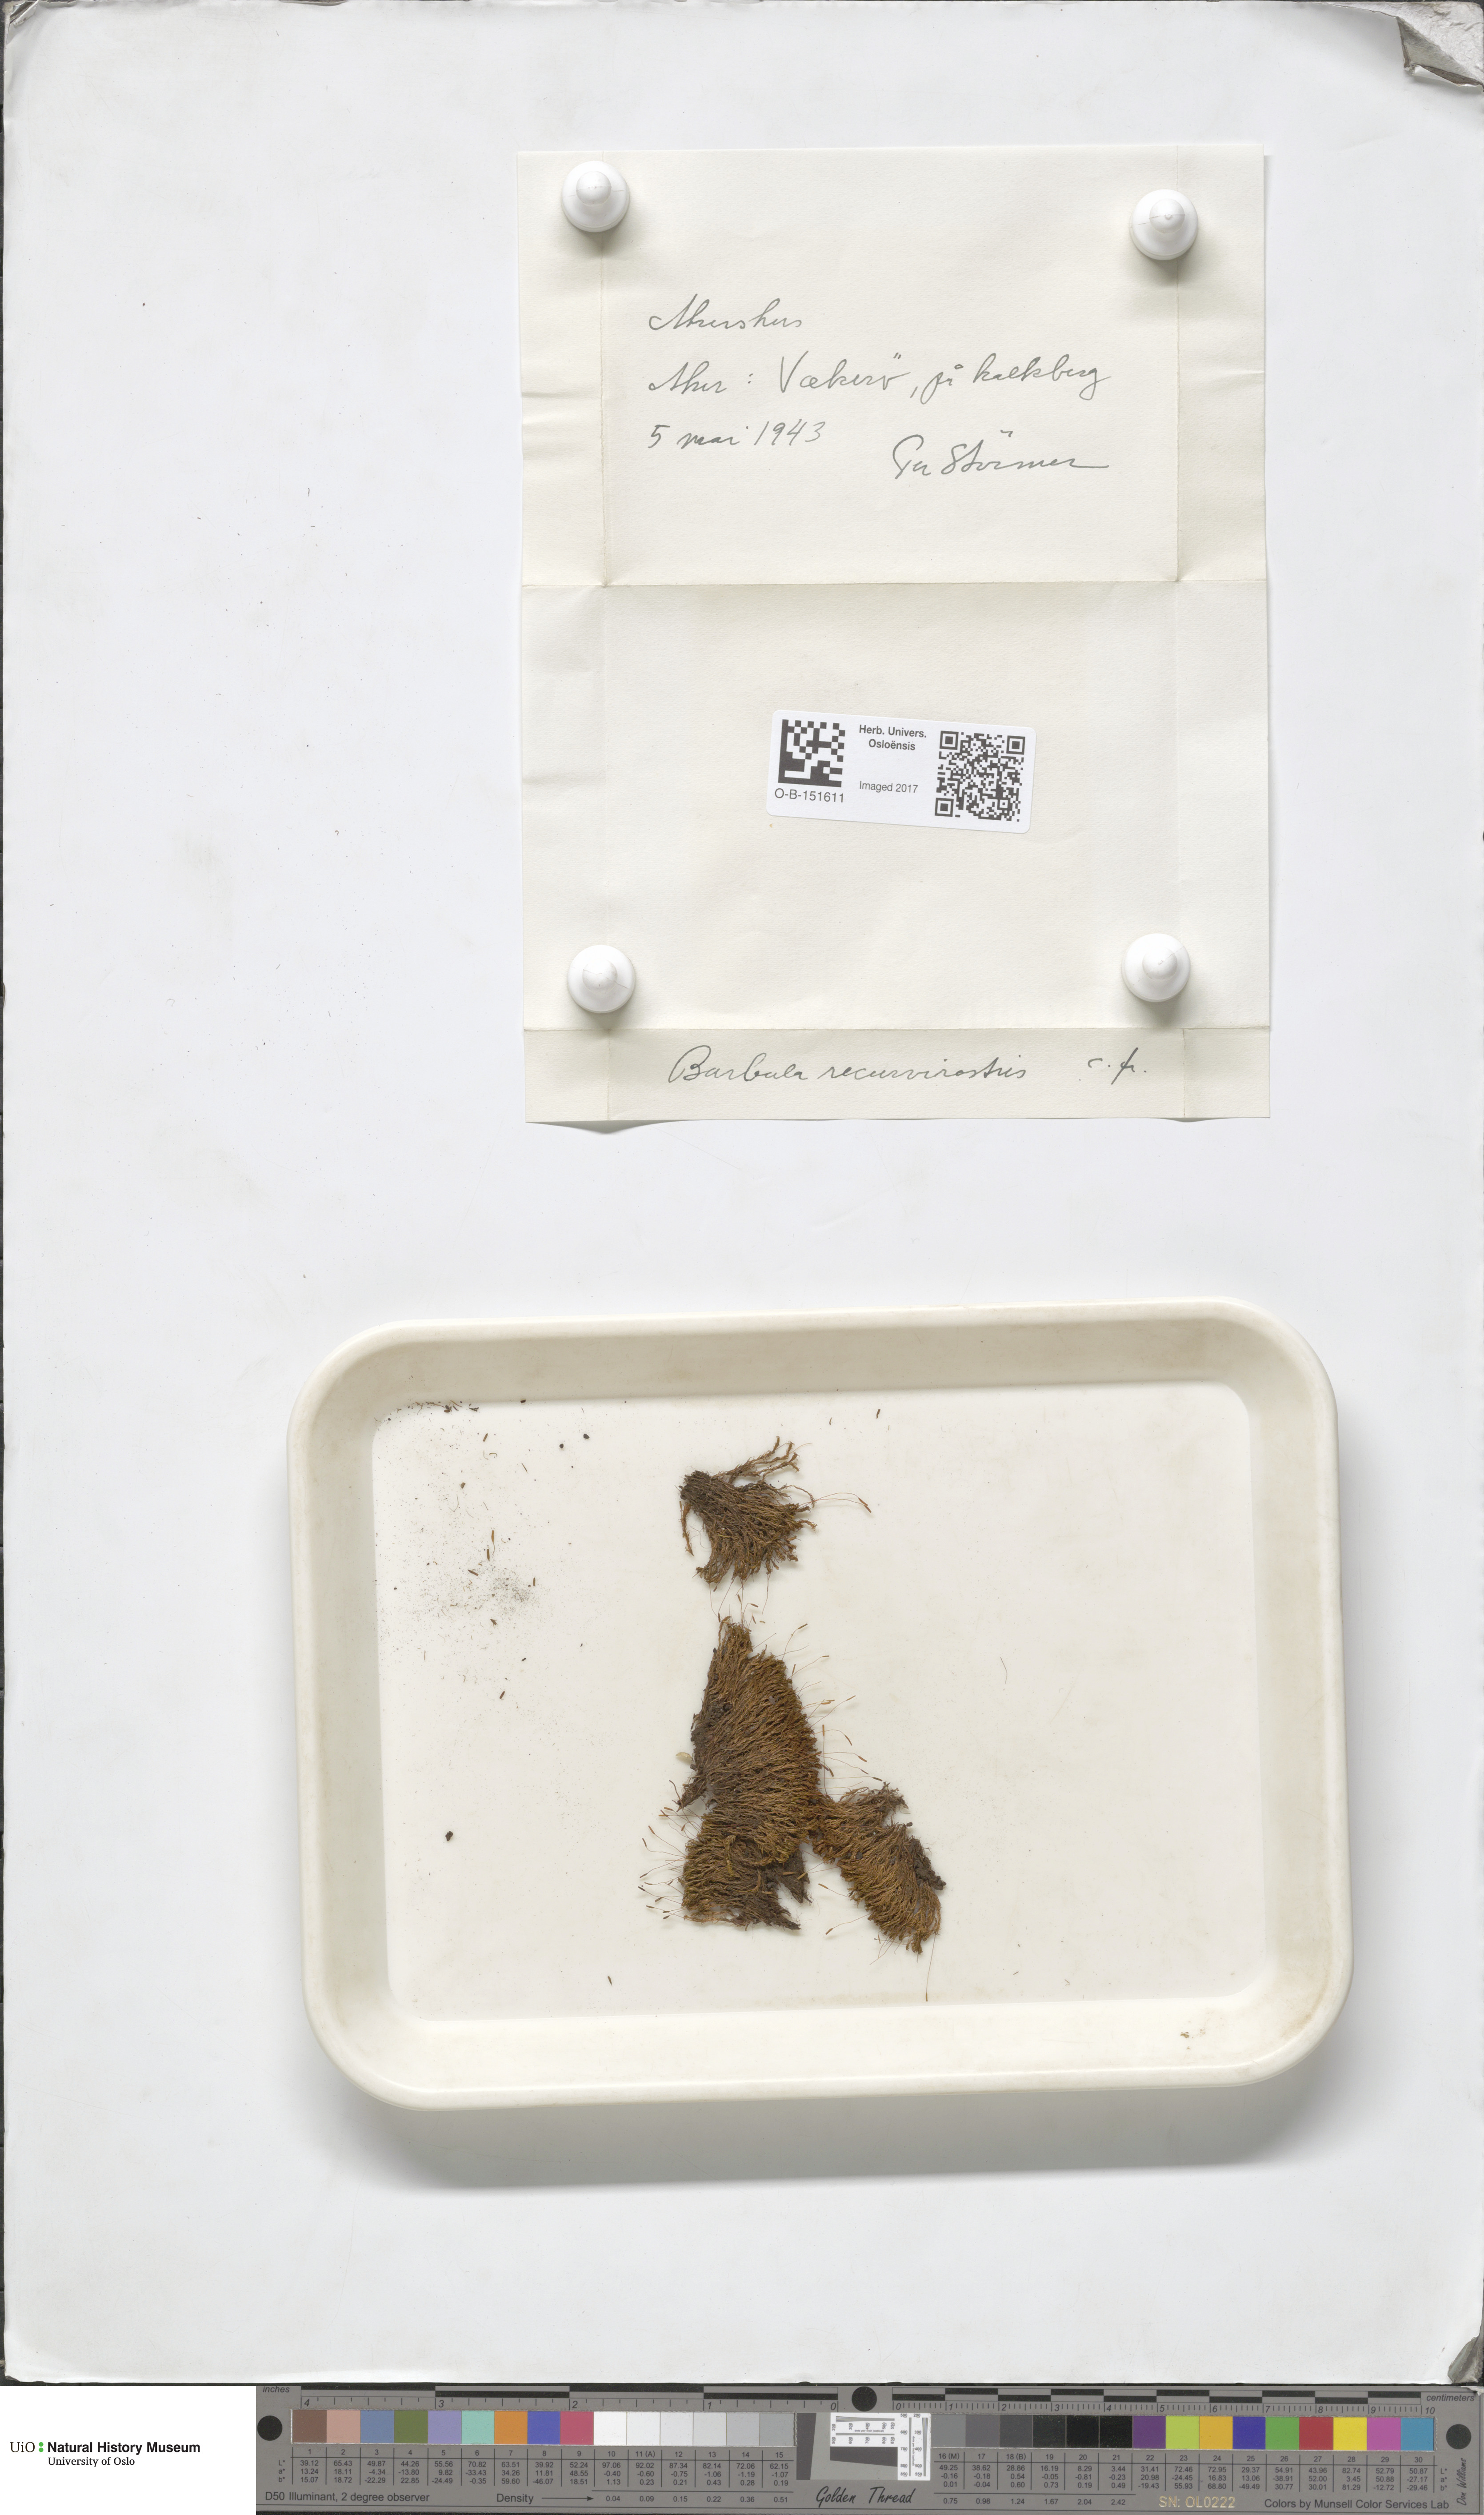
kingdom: Plantae
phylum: Bryophyta
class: Bryopsida
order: Pottiales
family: Pottiaceae
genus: Bryoerythrophyllum
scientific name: Bryoerythrophyllum recurvirostrum
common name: Red beard moss
